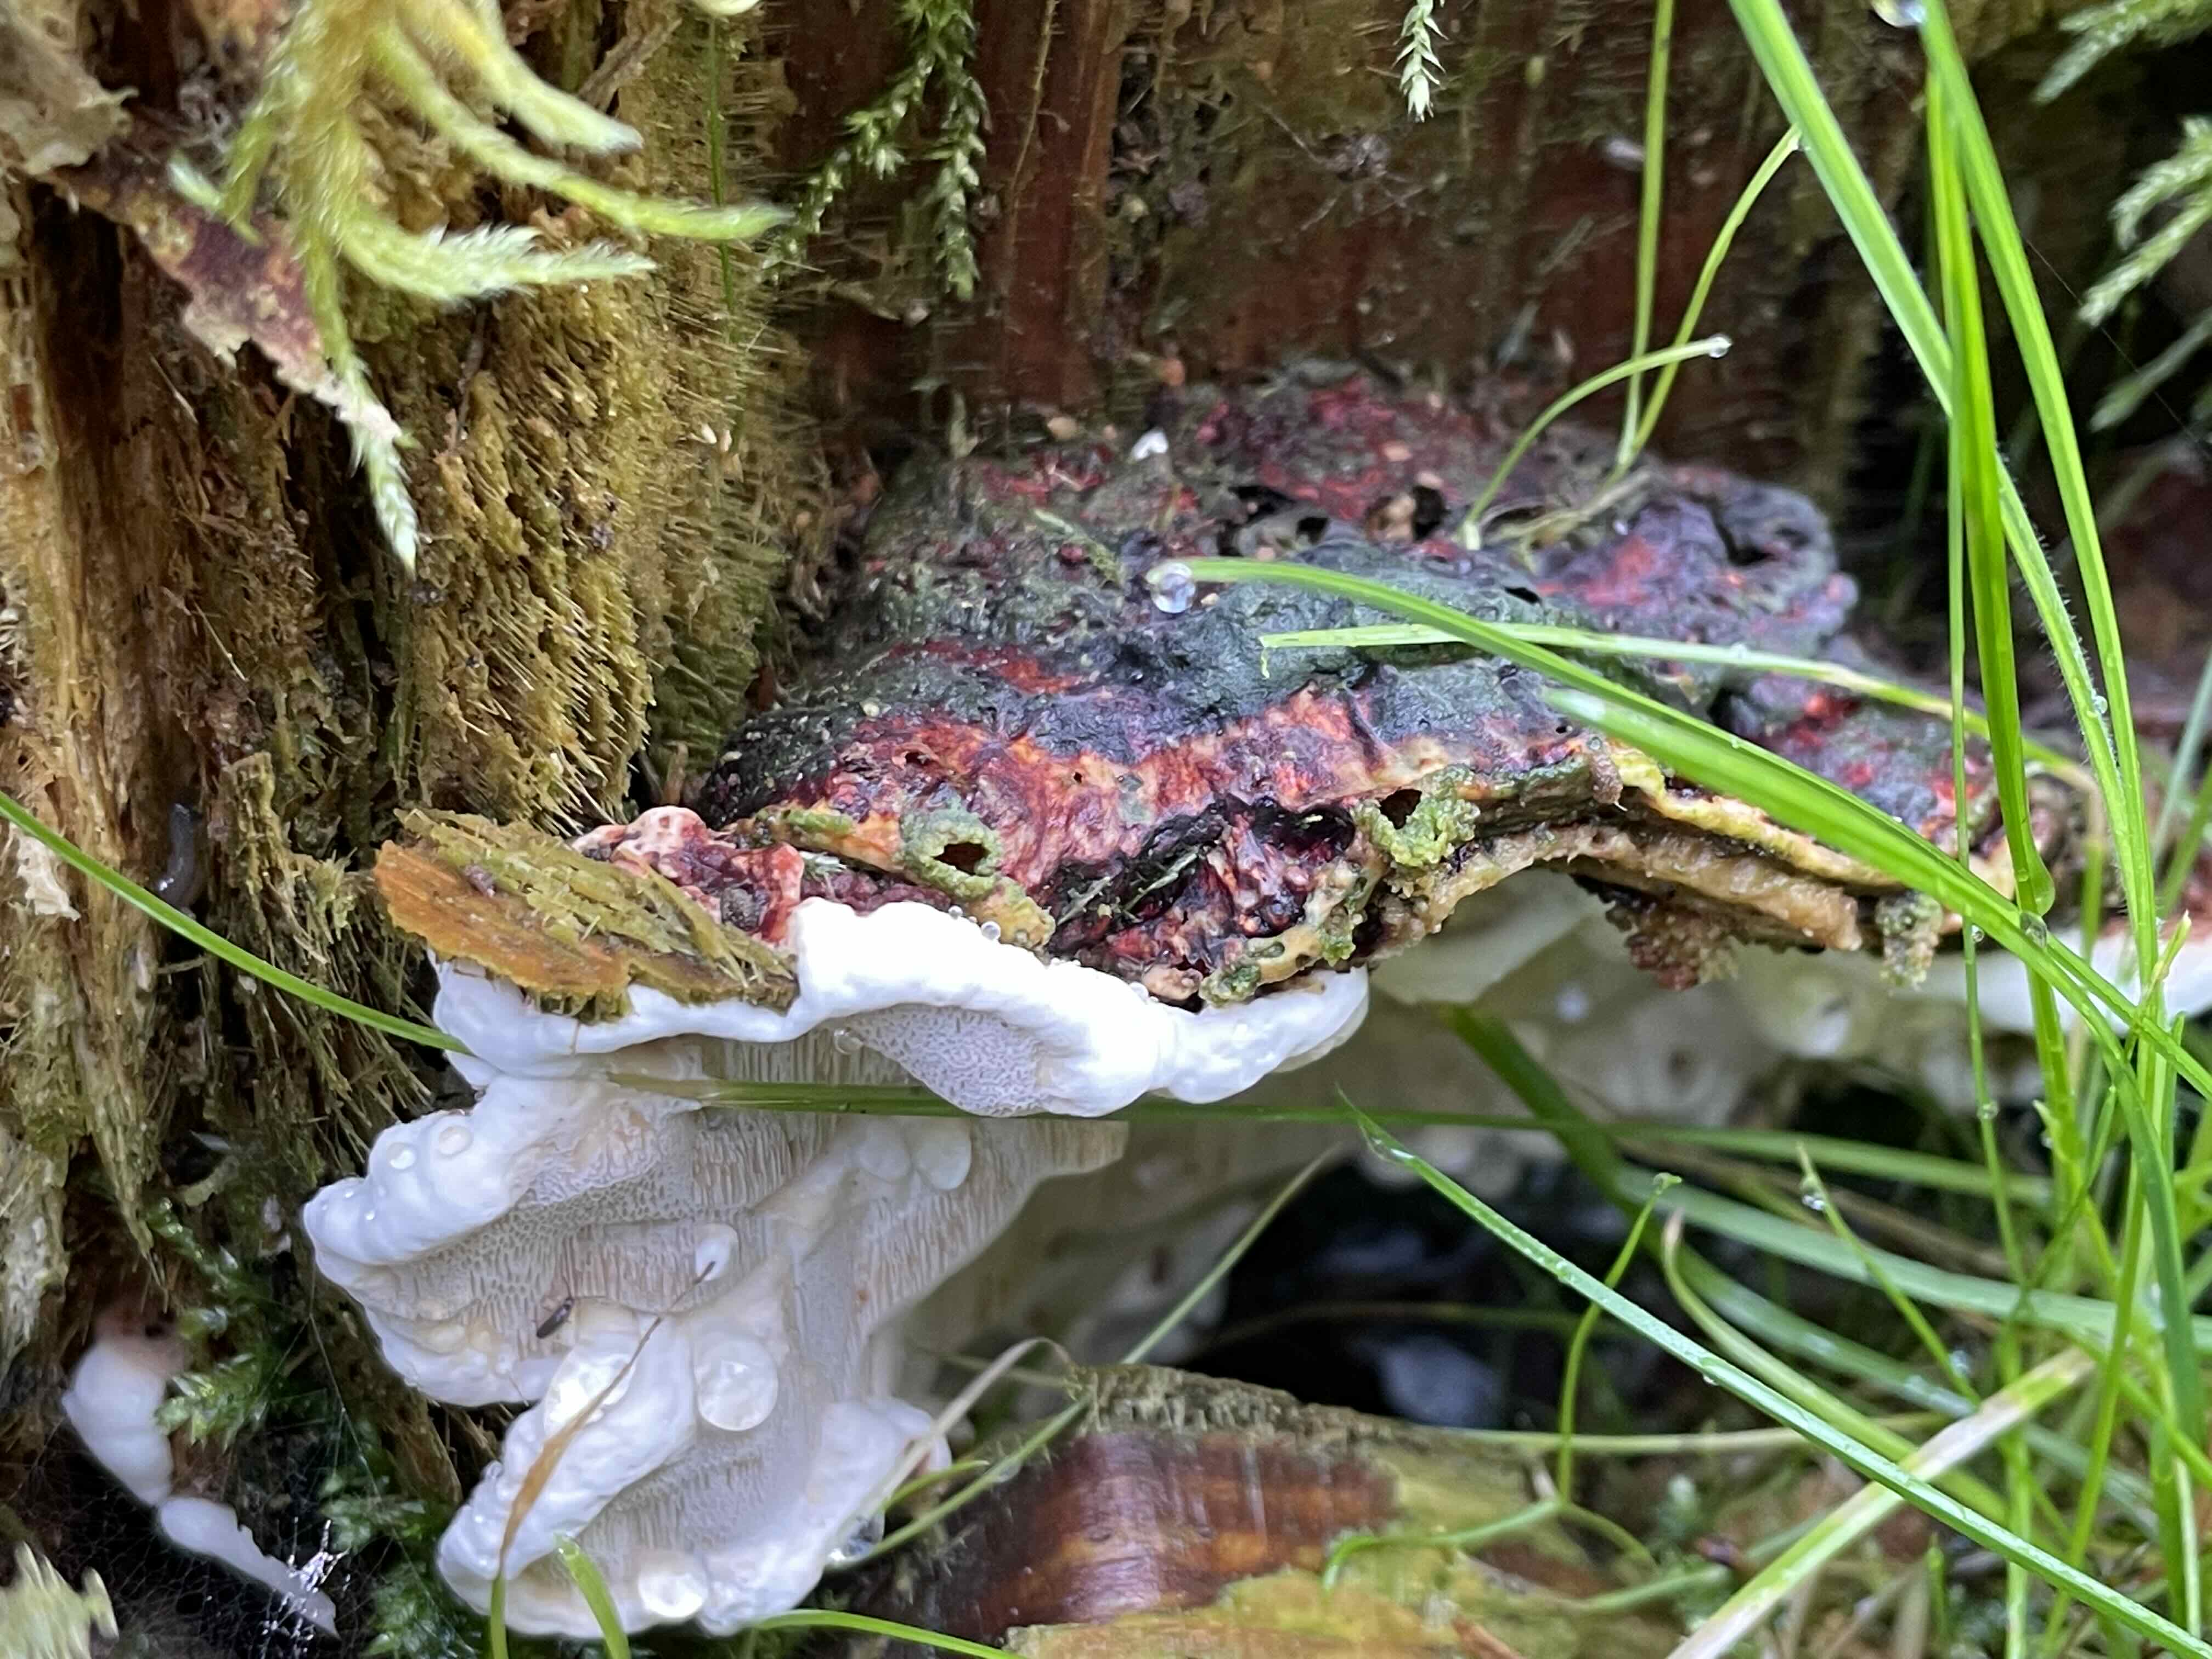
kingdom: Fungi
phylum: Basidiomycota
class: Agaricomycetes
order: Russulales
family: Bondarzewiaceae
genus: Heterobasidion
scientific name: Heterobasidion annosum
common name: almindelig rodfordærver
